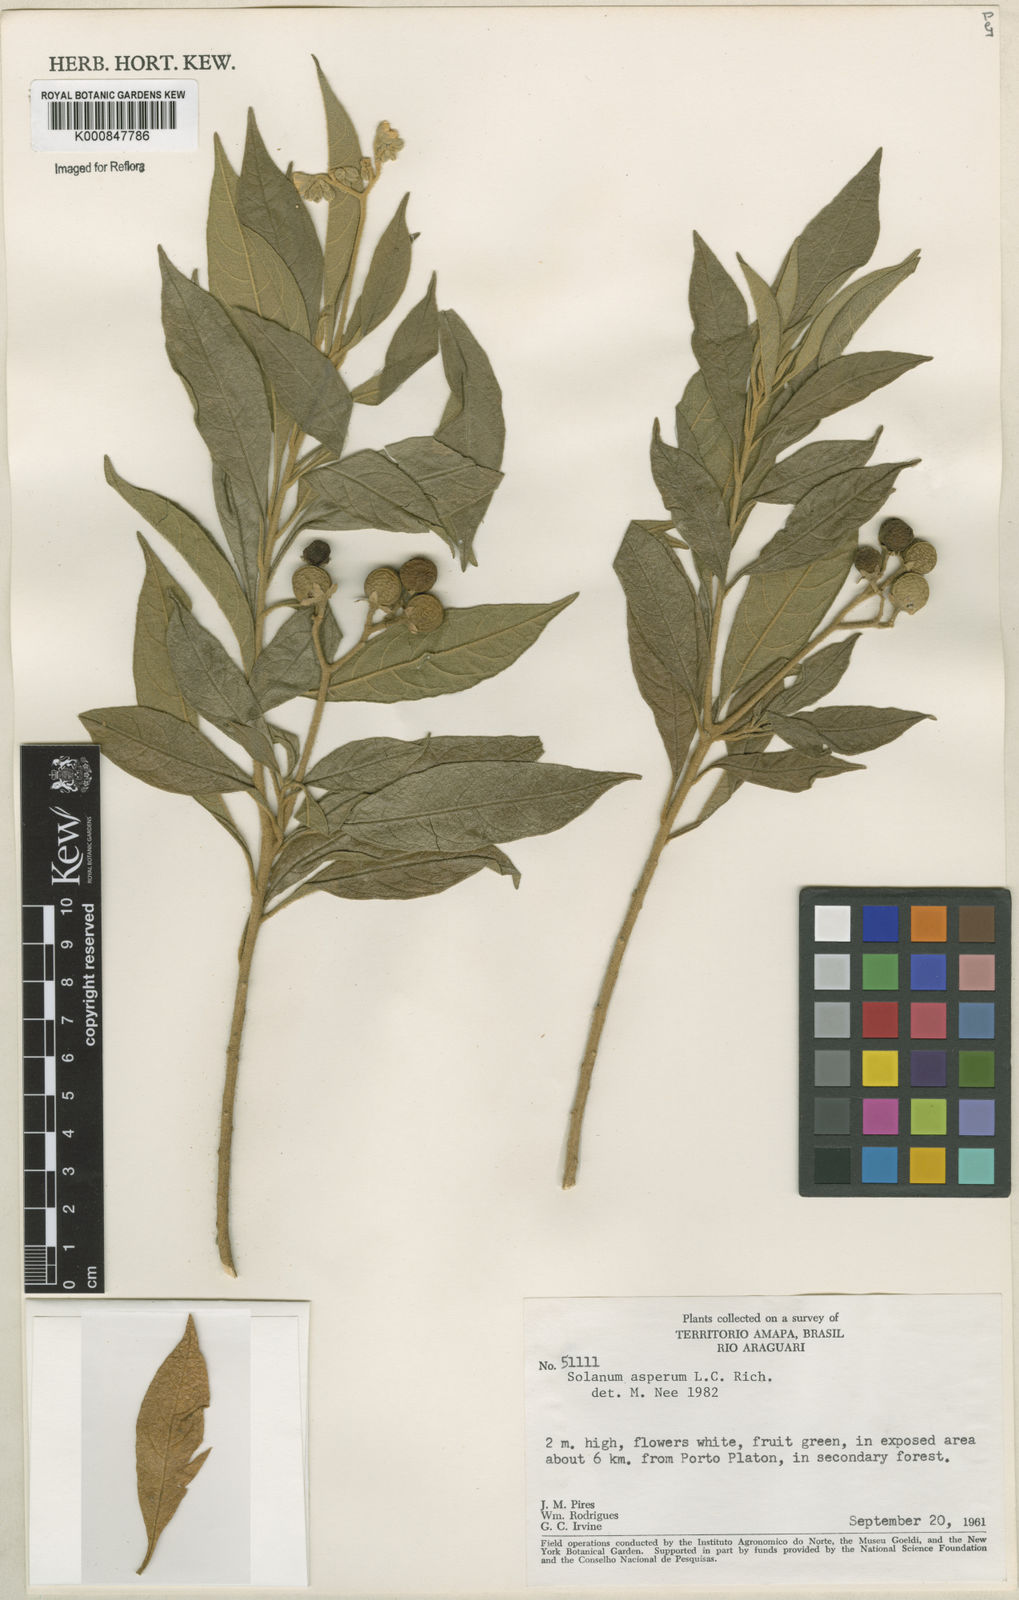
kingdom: Plantae
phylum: Tracheophyta
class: Magnoliopsida
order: Solanales
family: Solanaceae
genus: Solanum
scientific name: Solanum asperum
